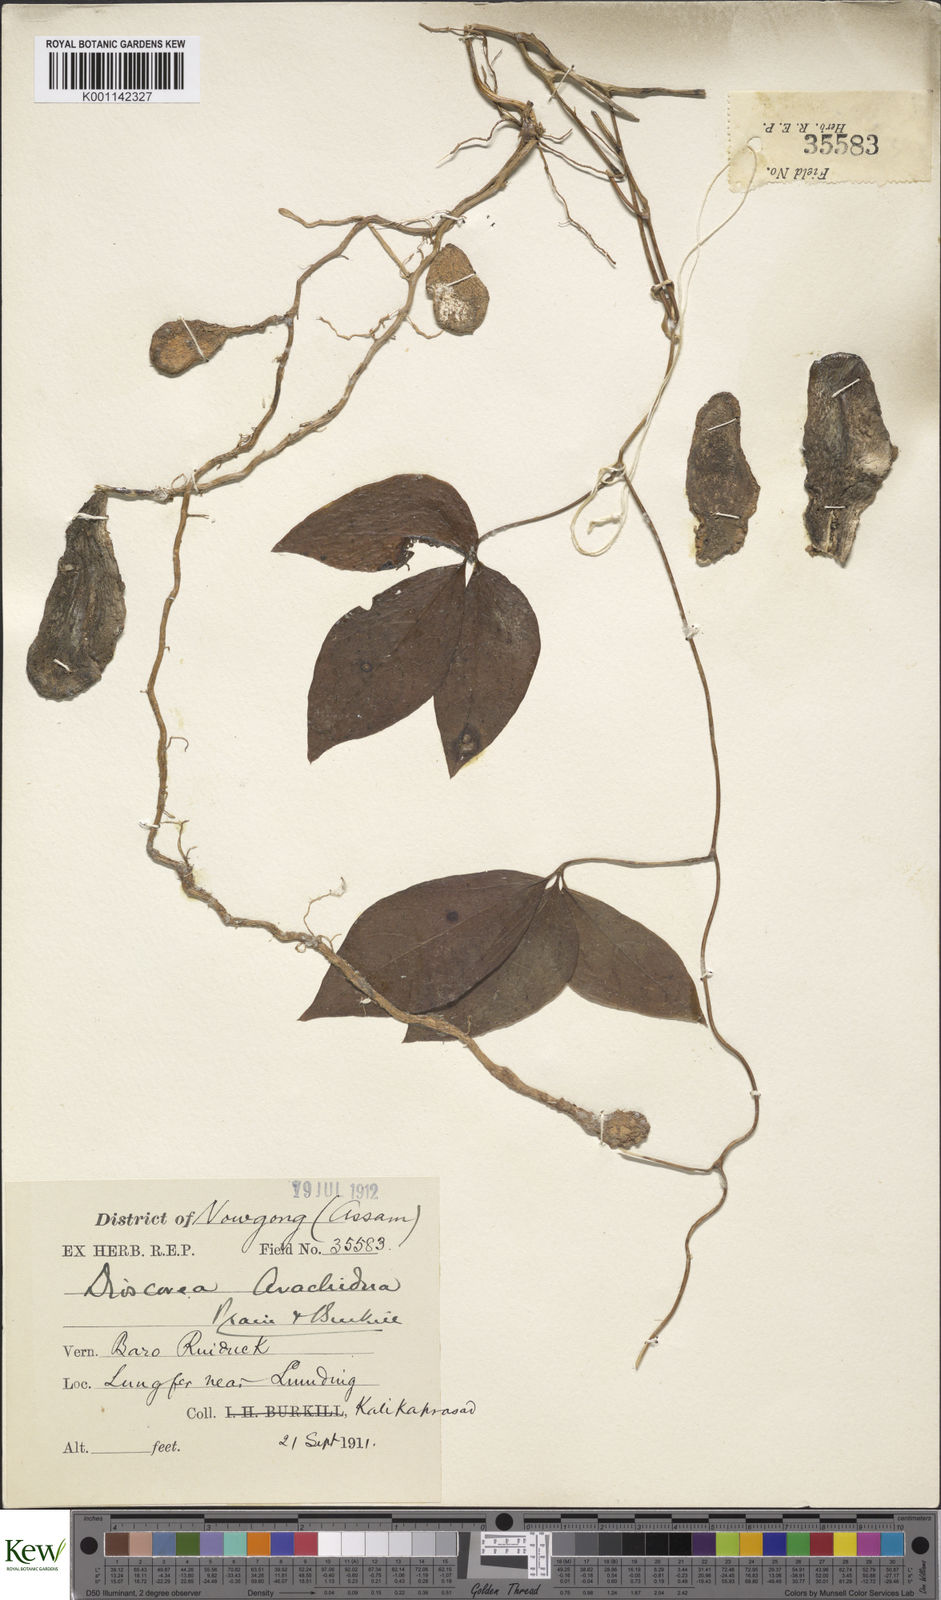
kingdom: Plantae
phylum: Tracheophyta
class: Liliopsida
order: Dioscoreales
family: Dioscoreaceae
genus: Dioscorea
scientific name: Dioscorea arachidna
